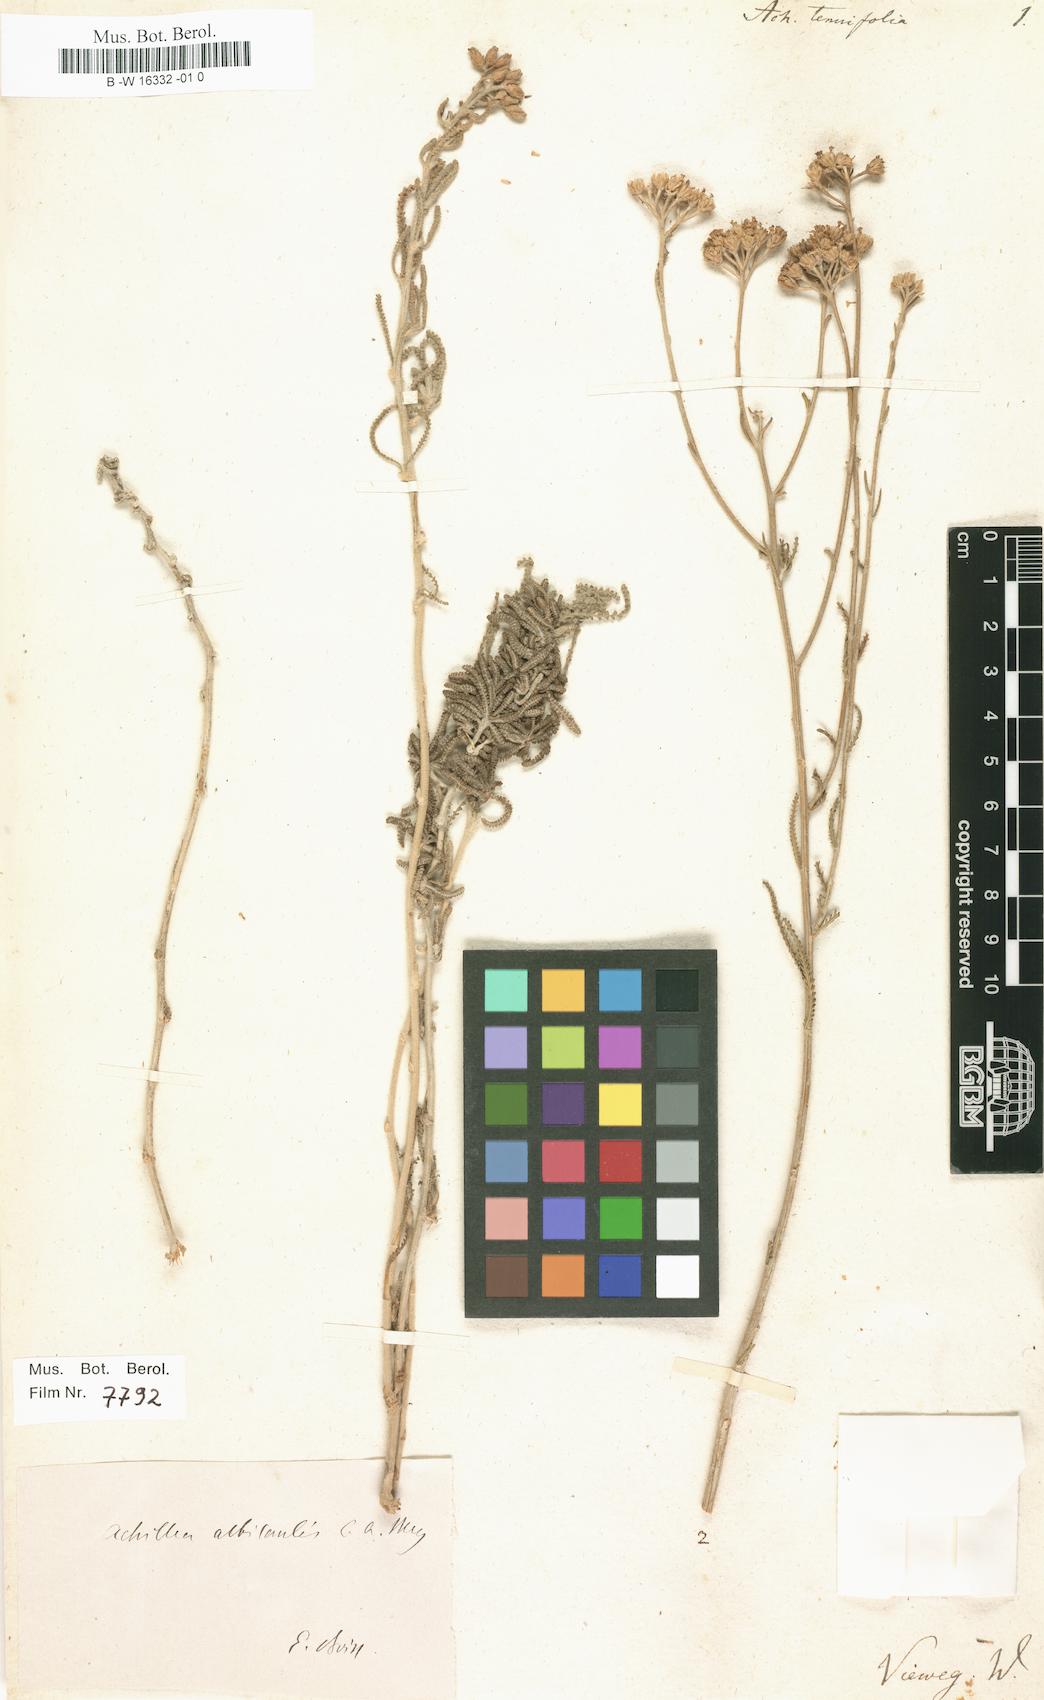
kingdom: Plantae
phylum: Tracheophyta
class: Magnoliopsida
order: Asterales
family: Asteraceae
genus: Achillea
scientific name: Achillea tenuifolia
